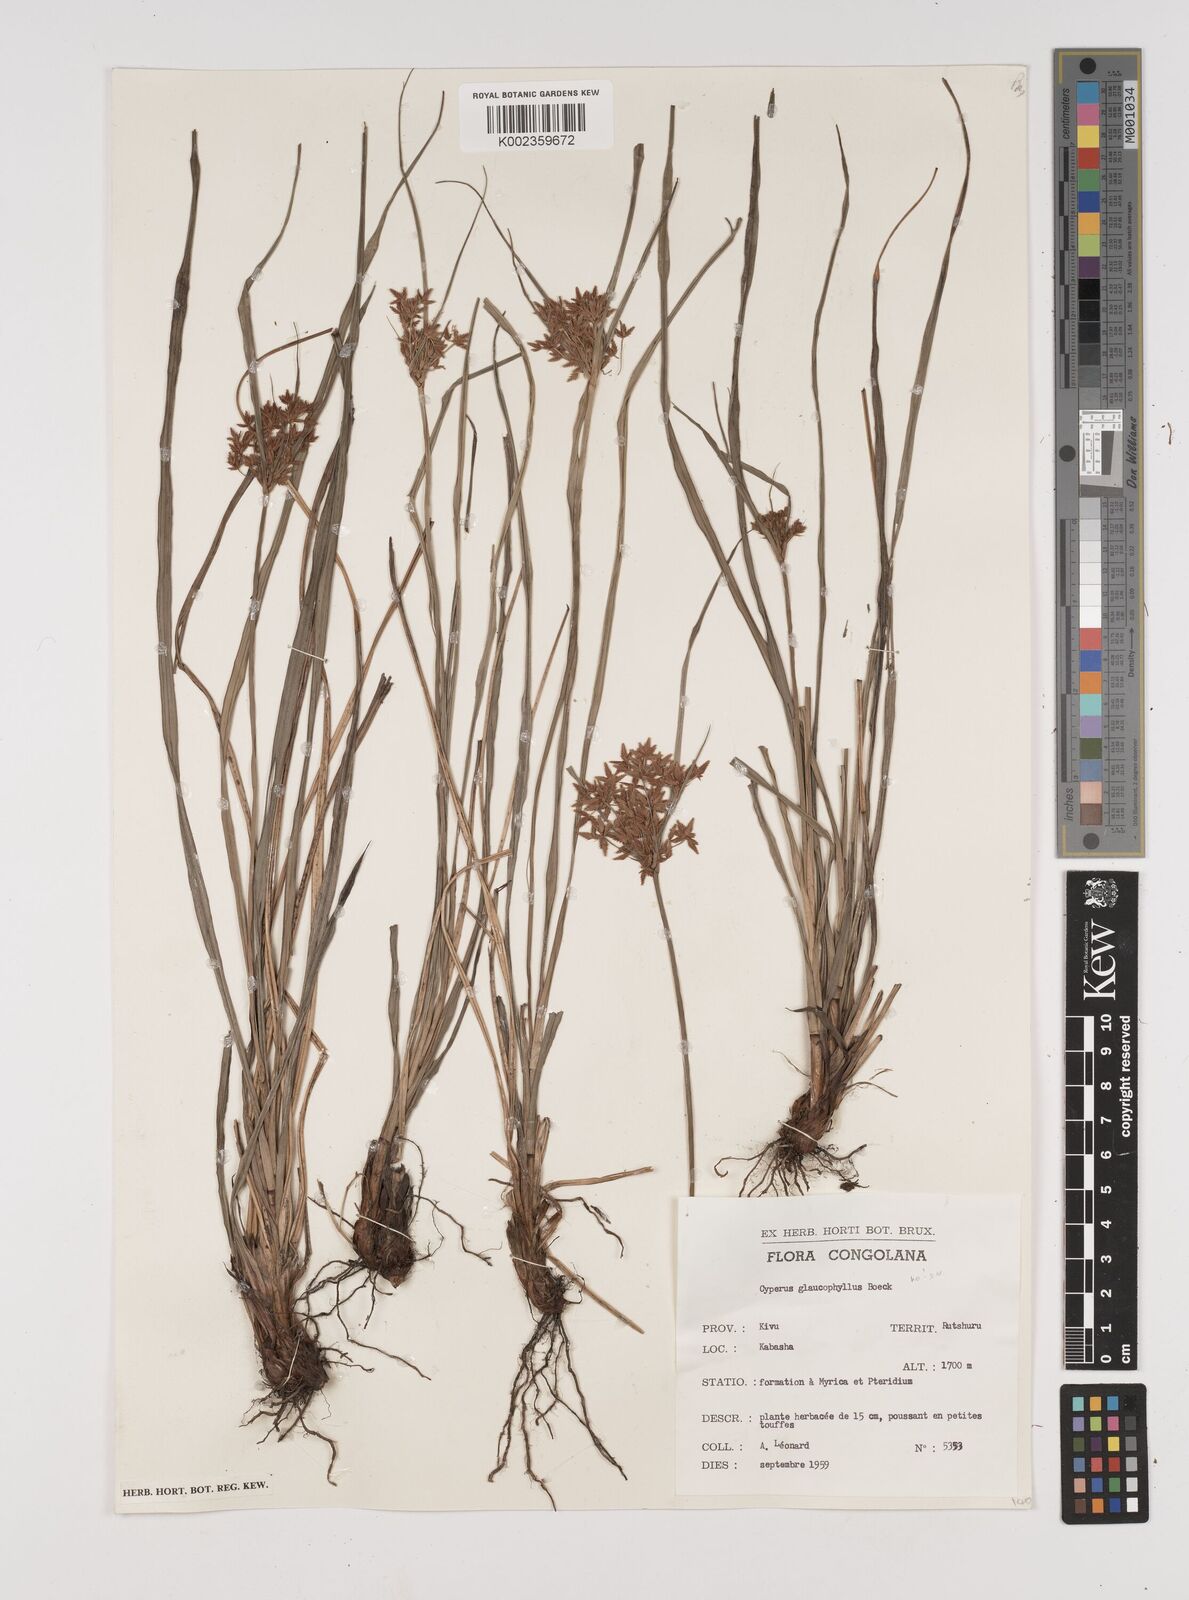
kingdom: Plantae
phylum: Tracheophyta
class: Liliopsida
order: Poales
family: Cyperaceae
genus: Cyperus
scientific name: Cyperus
